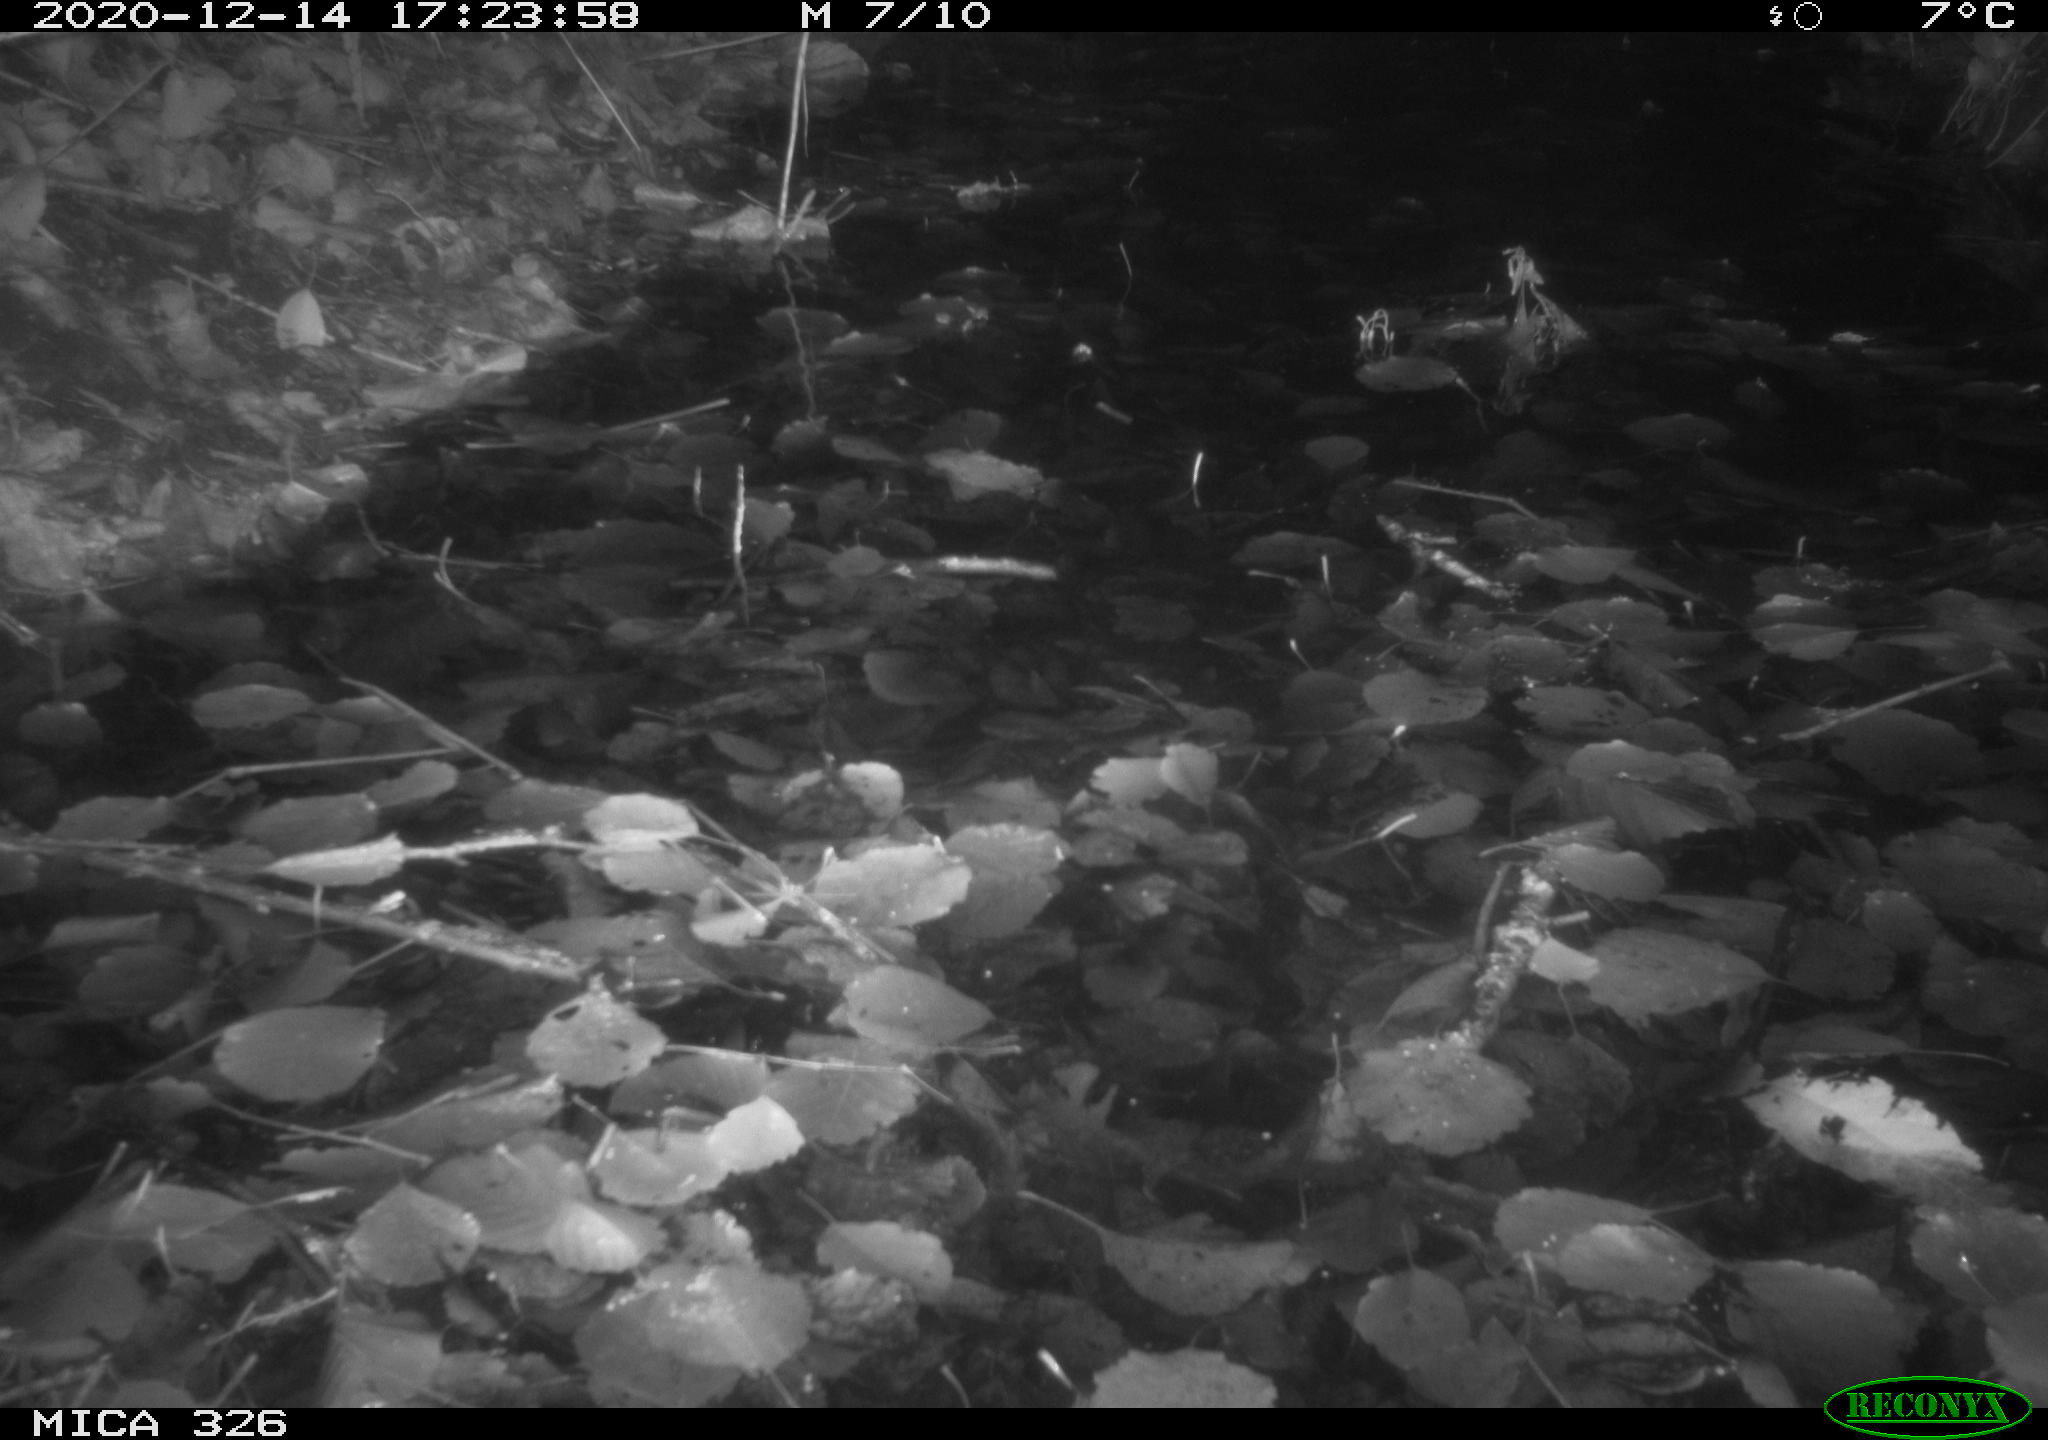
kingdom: Animalia
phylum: Chordata
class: Mammalia
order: Rodentia
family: Cricetidae
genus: Ondatra
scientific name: Ondatra zibethicus
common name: Muskrat
